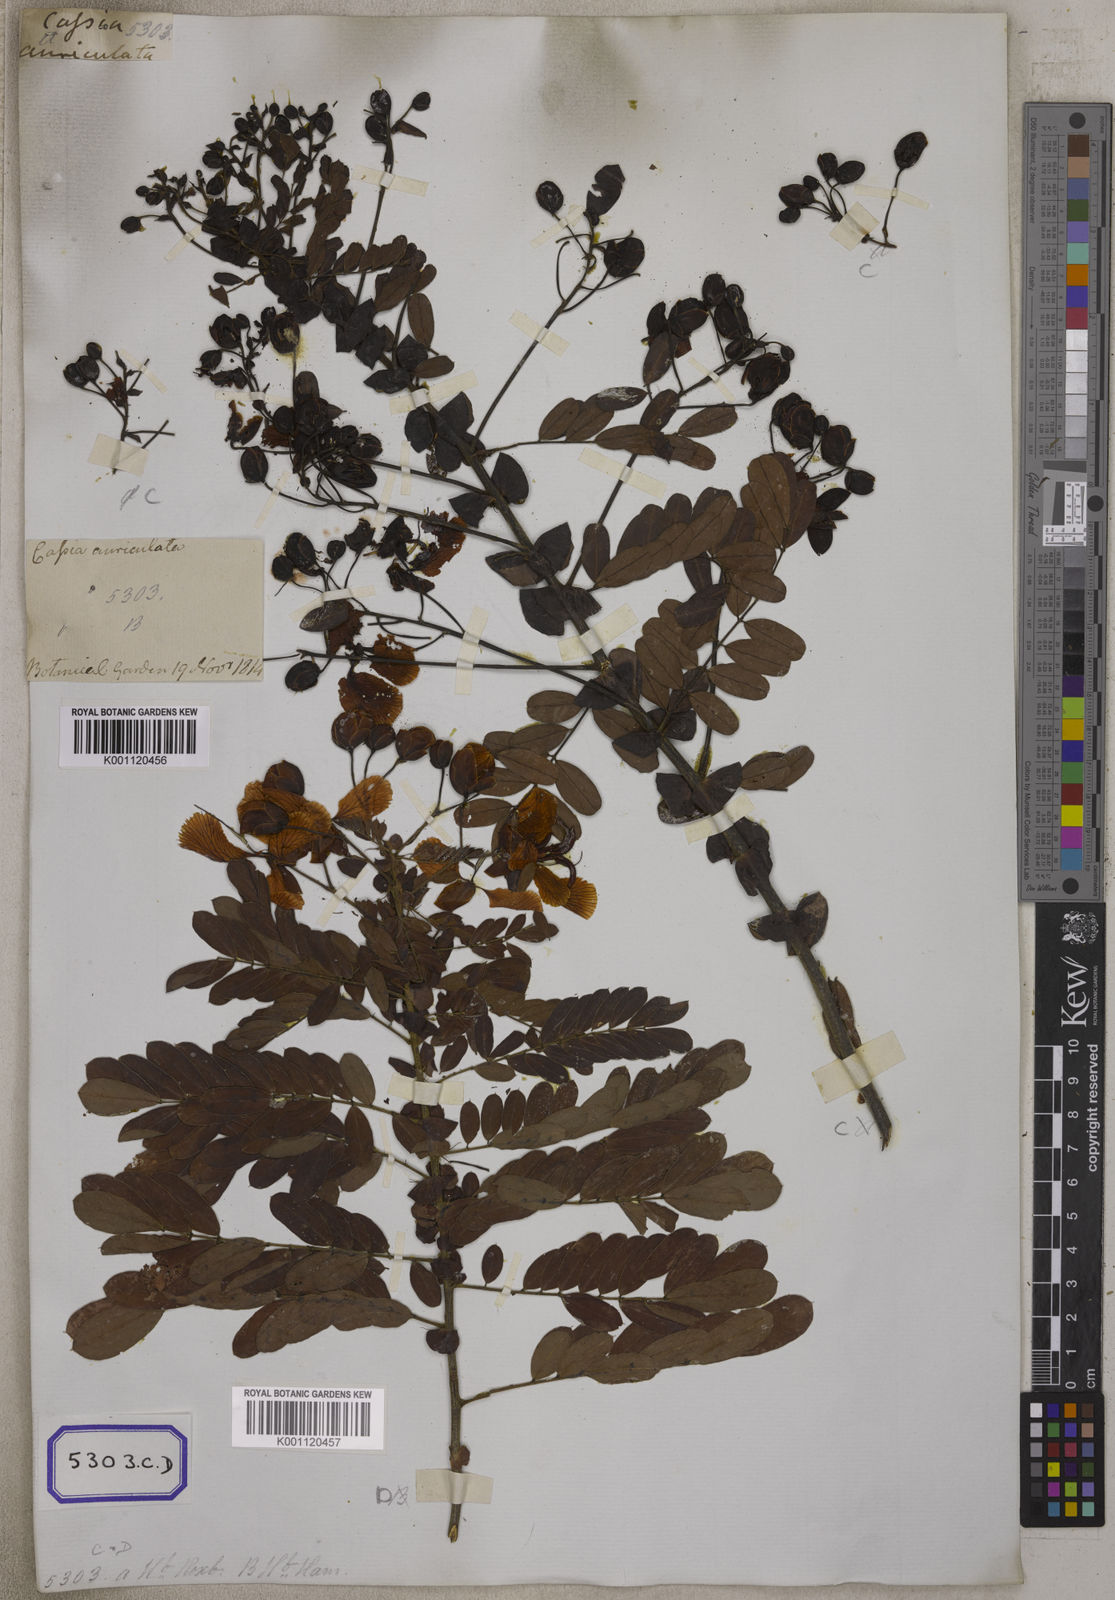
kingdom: Plantae
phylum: Tracheophyta
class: Magnoliopsida
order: Fabales
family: Fabaceae
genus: Senna
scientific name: Senna auriculata
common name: Tanner's cassia
